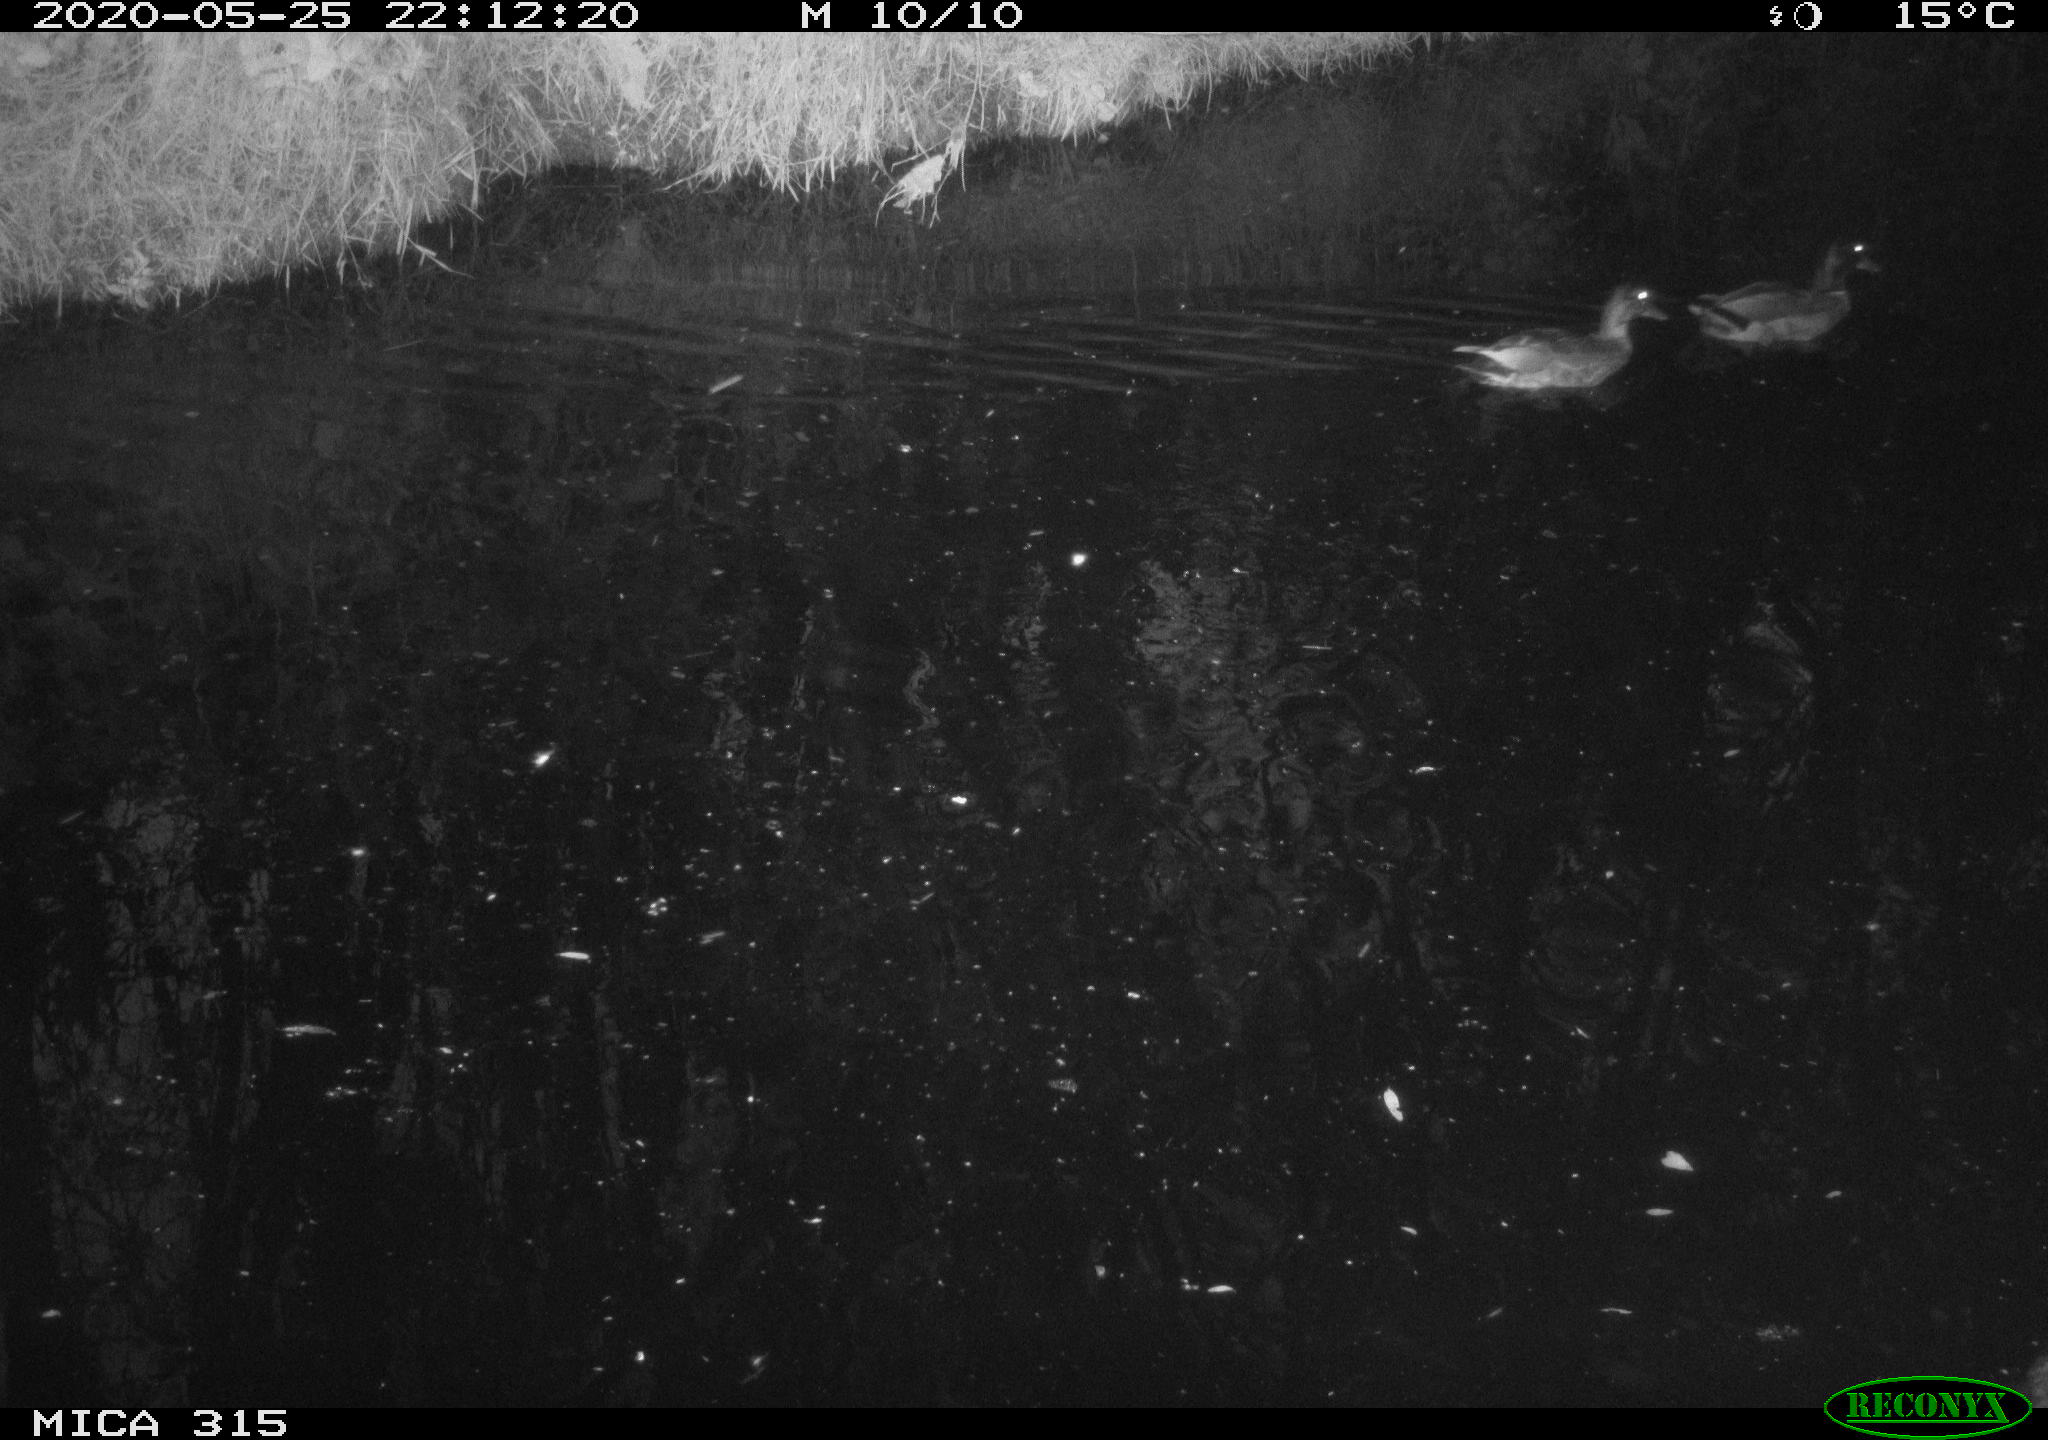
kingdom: Animalia
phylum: Chordata
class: Aves
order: Anseriformes
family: Anatidae
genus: Anas
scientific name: Anas platyrhynchos
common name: Mallard
